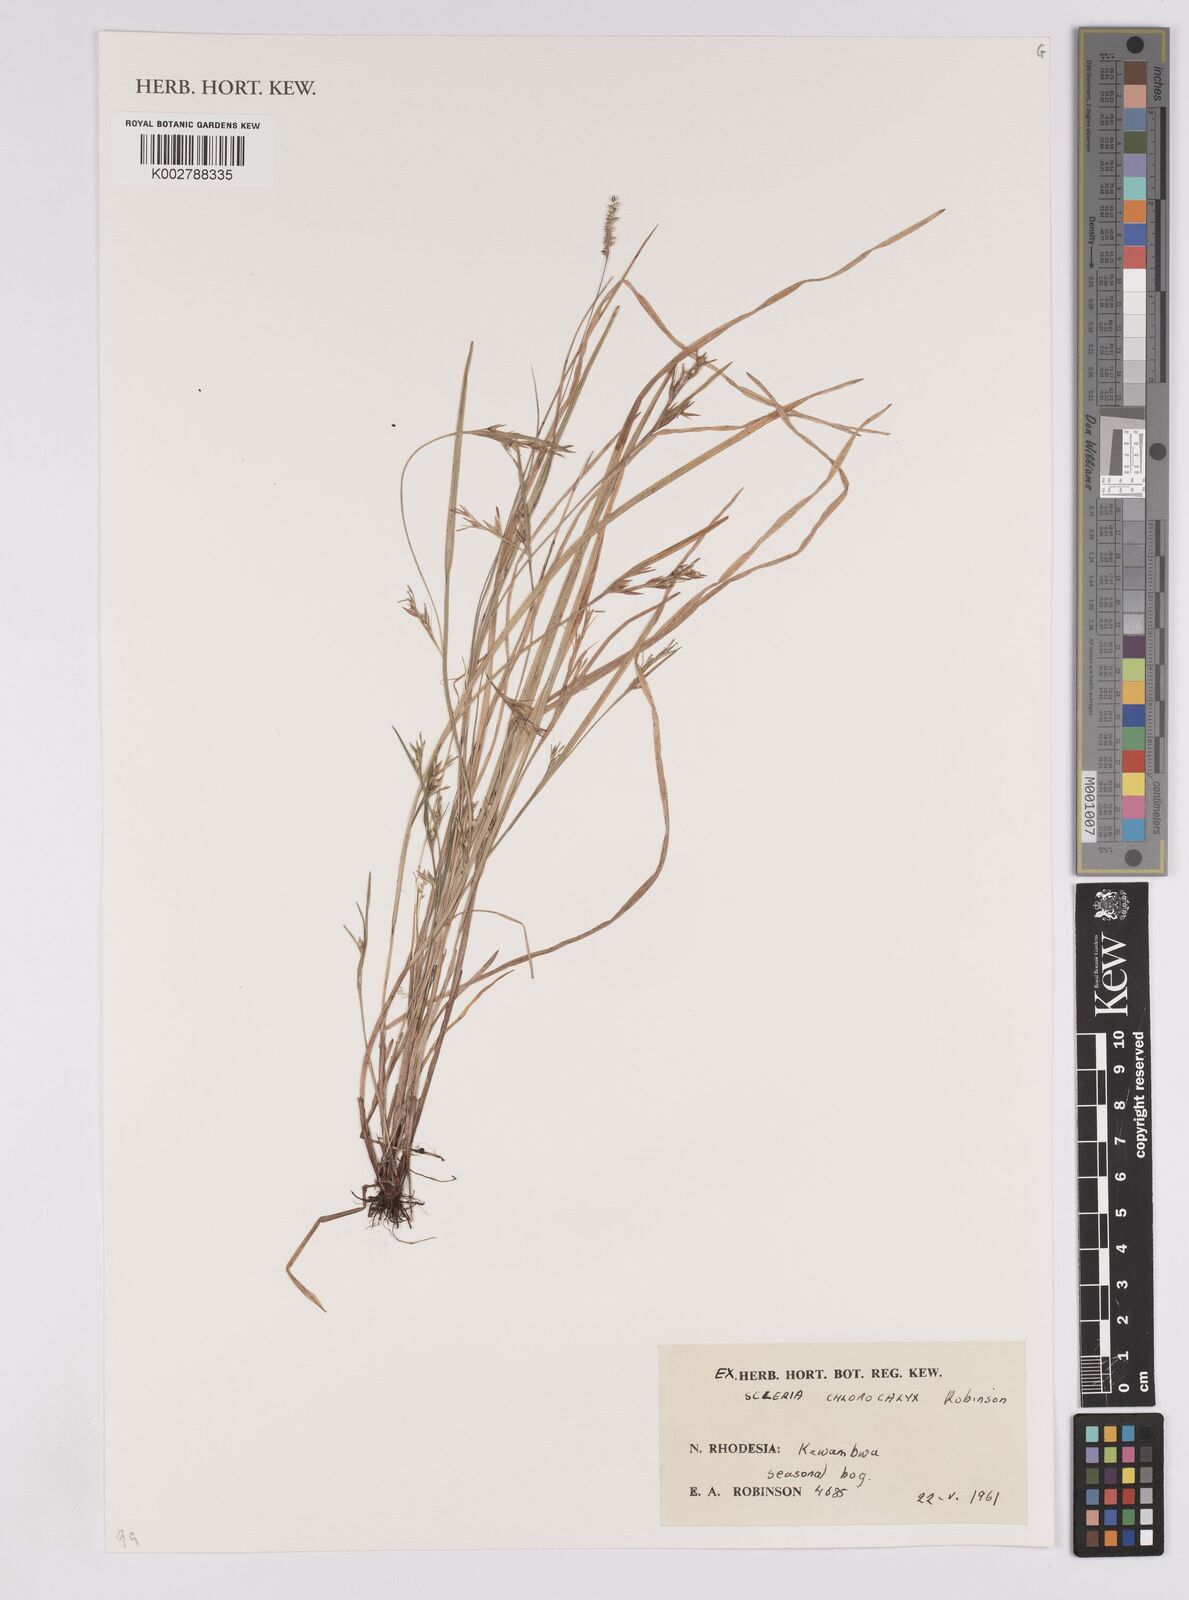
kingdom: Plantae
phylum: Tracheophyta
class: Liliopsida
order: Poales
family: Cyperaceae
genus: Scleria
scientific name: Scleria chlorocalyx
